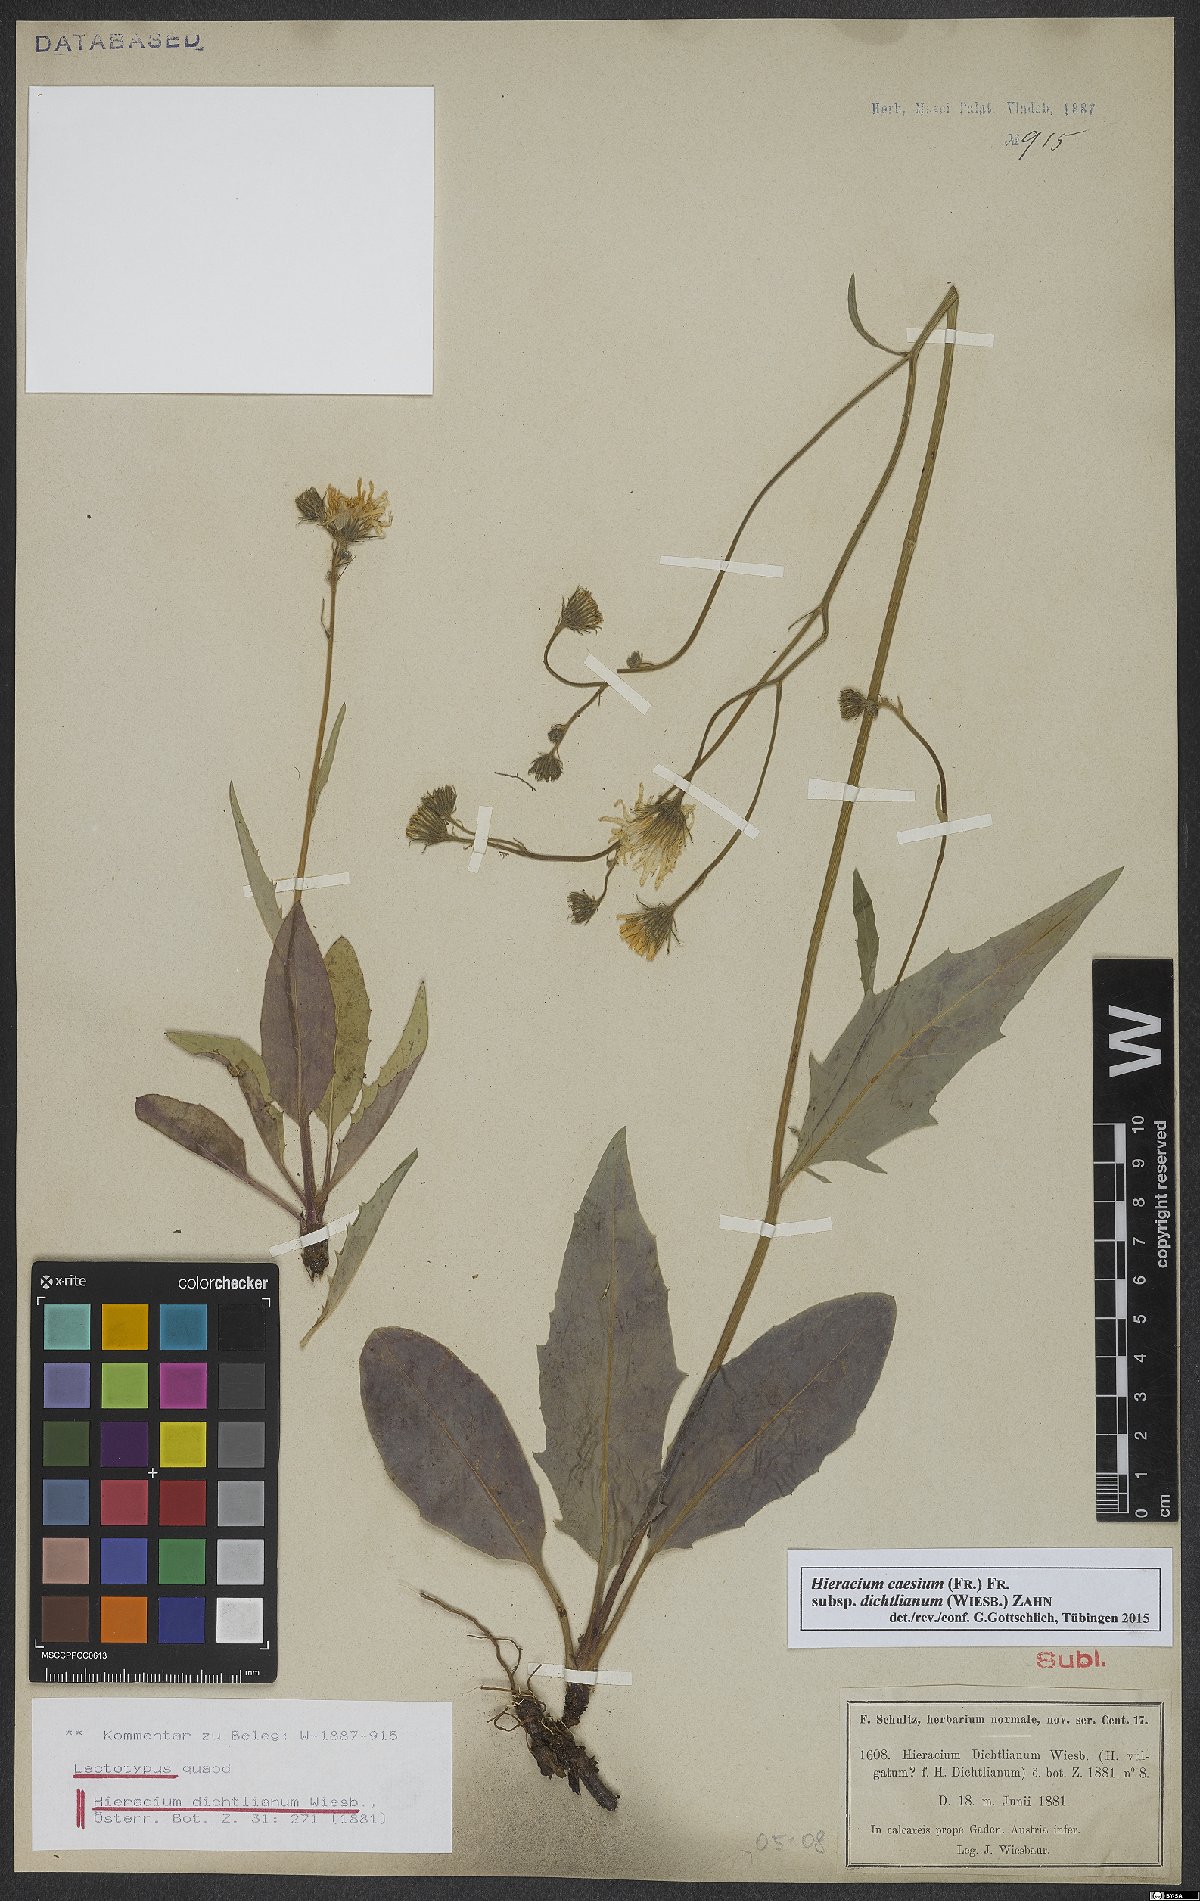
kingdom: Plantae
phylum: Tracheophyta
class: Magnoliopsida
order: Asterales
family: Asteraceae
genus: Hieracium
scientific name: Hieracium caesium
